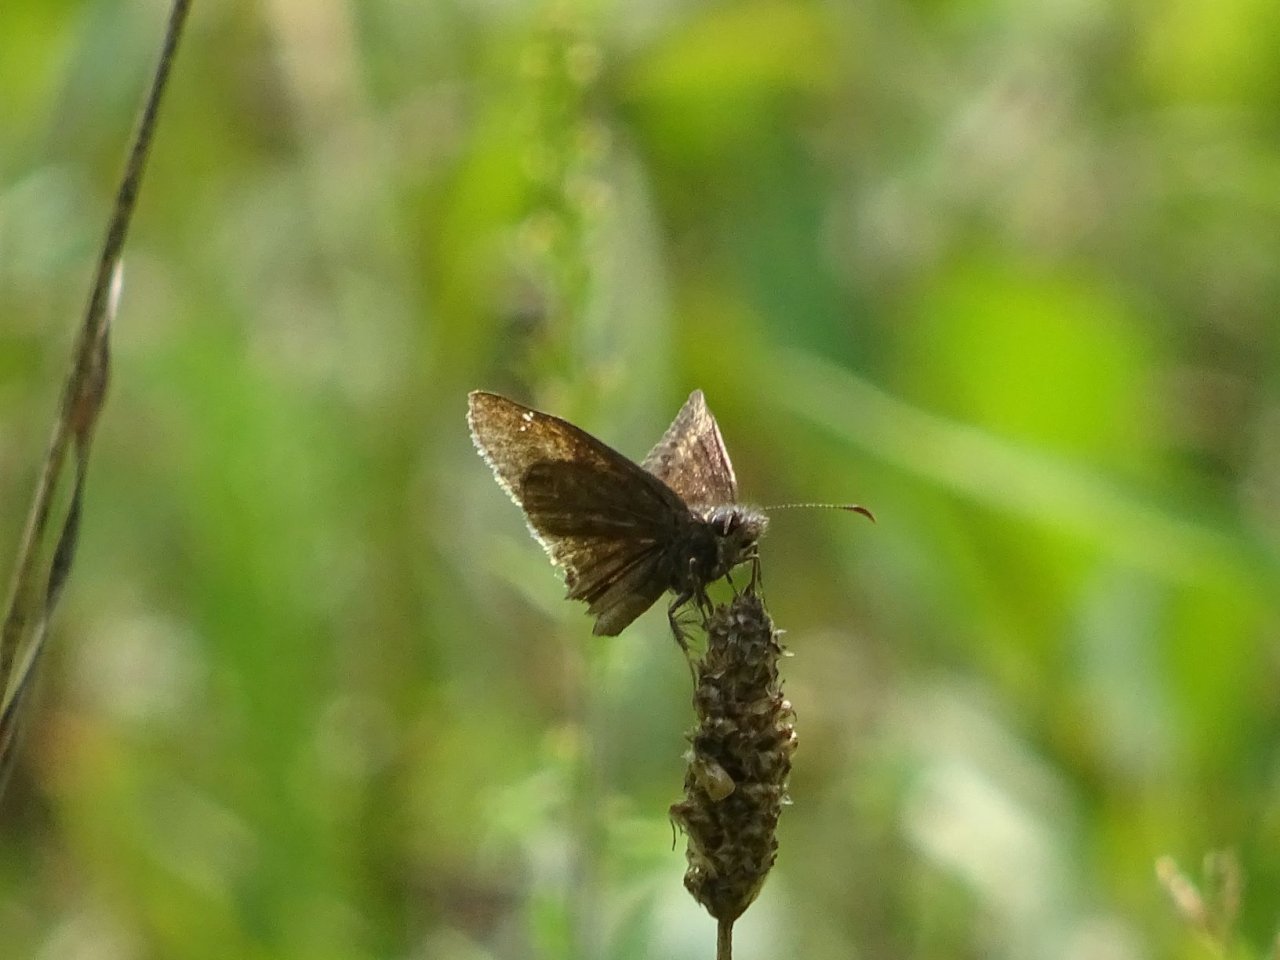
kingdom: Animalia
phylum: Arthropoda
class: Insecta
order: Lepidoptera
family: Hesperiidae
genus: Gesta
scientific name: Gesta
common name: Wild Indigo Duskywing
